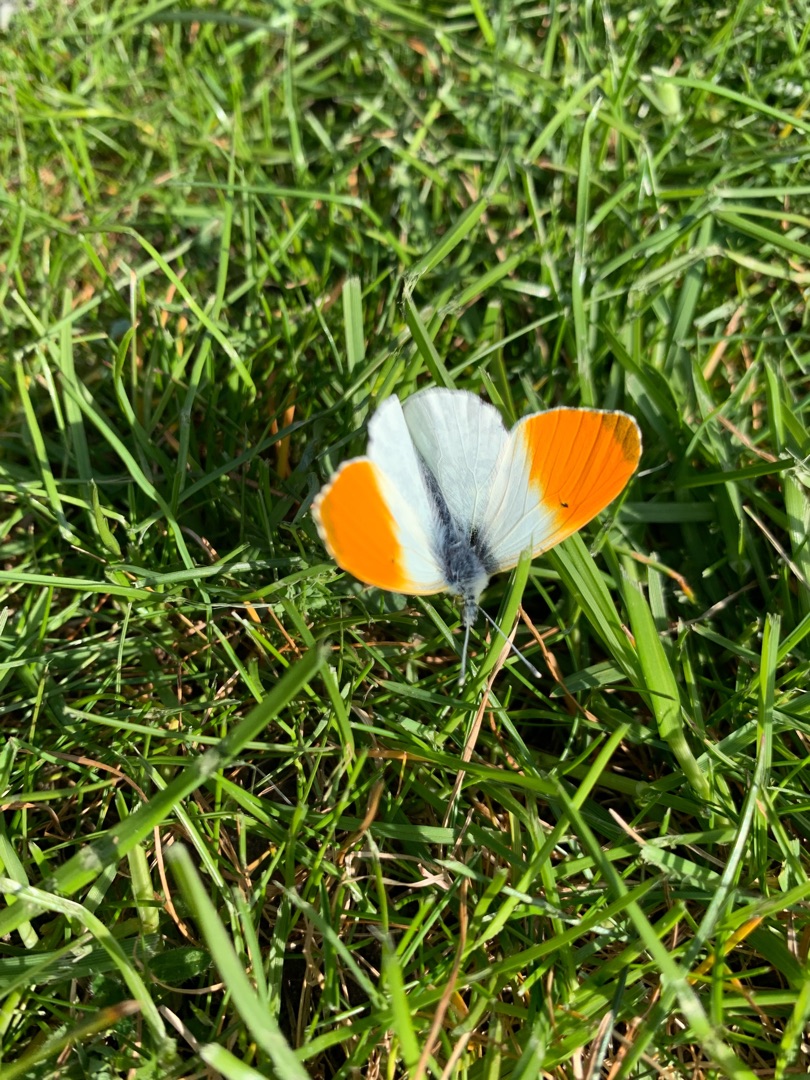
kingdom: Animalia
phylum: Arthropoda
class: Insecta
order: Lepidoptera
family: Pieridae
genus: Anthocharis
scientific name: Anthocharis cardamines
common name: Aurora
